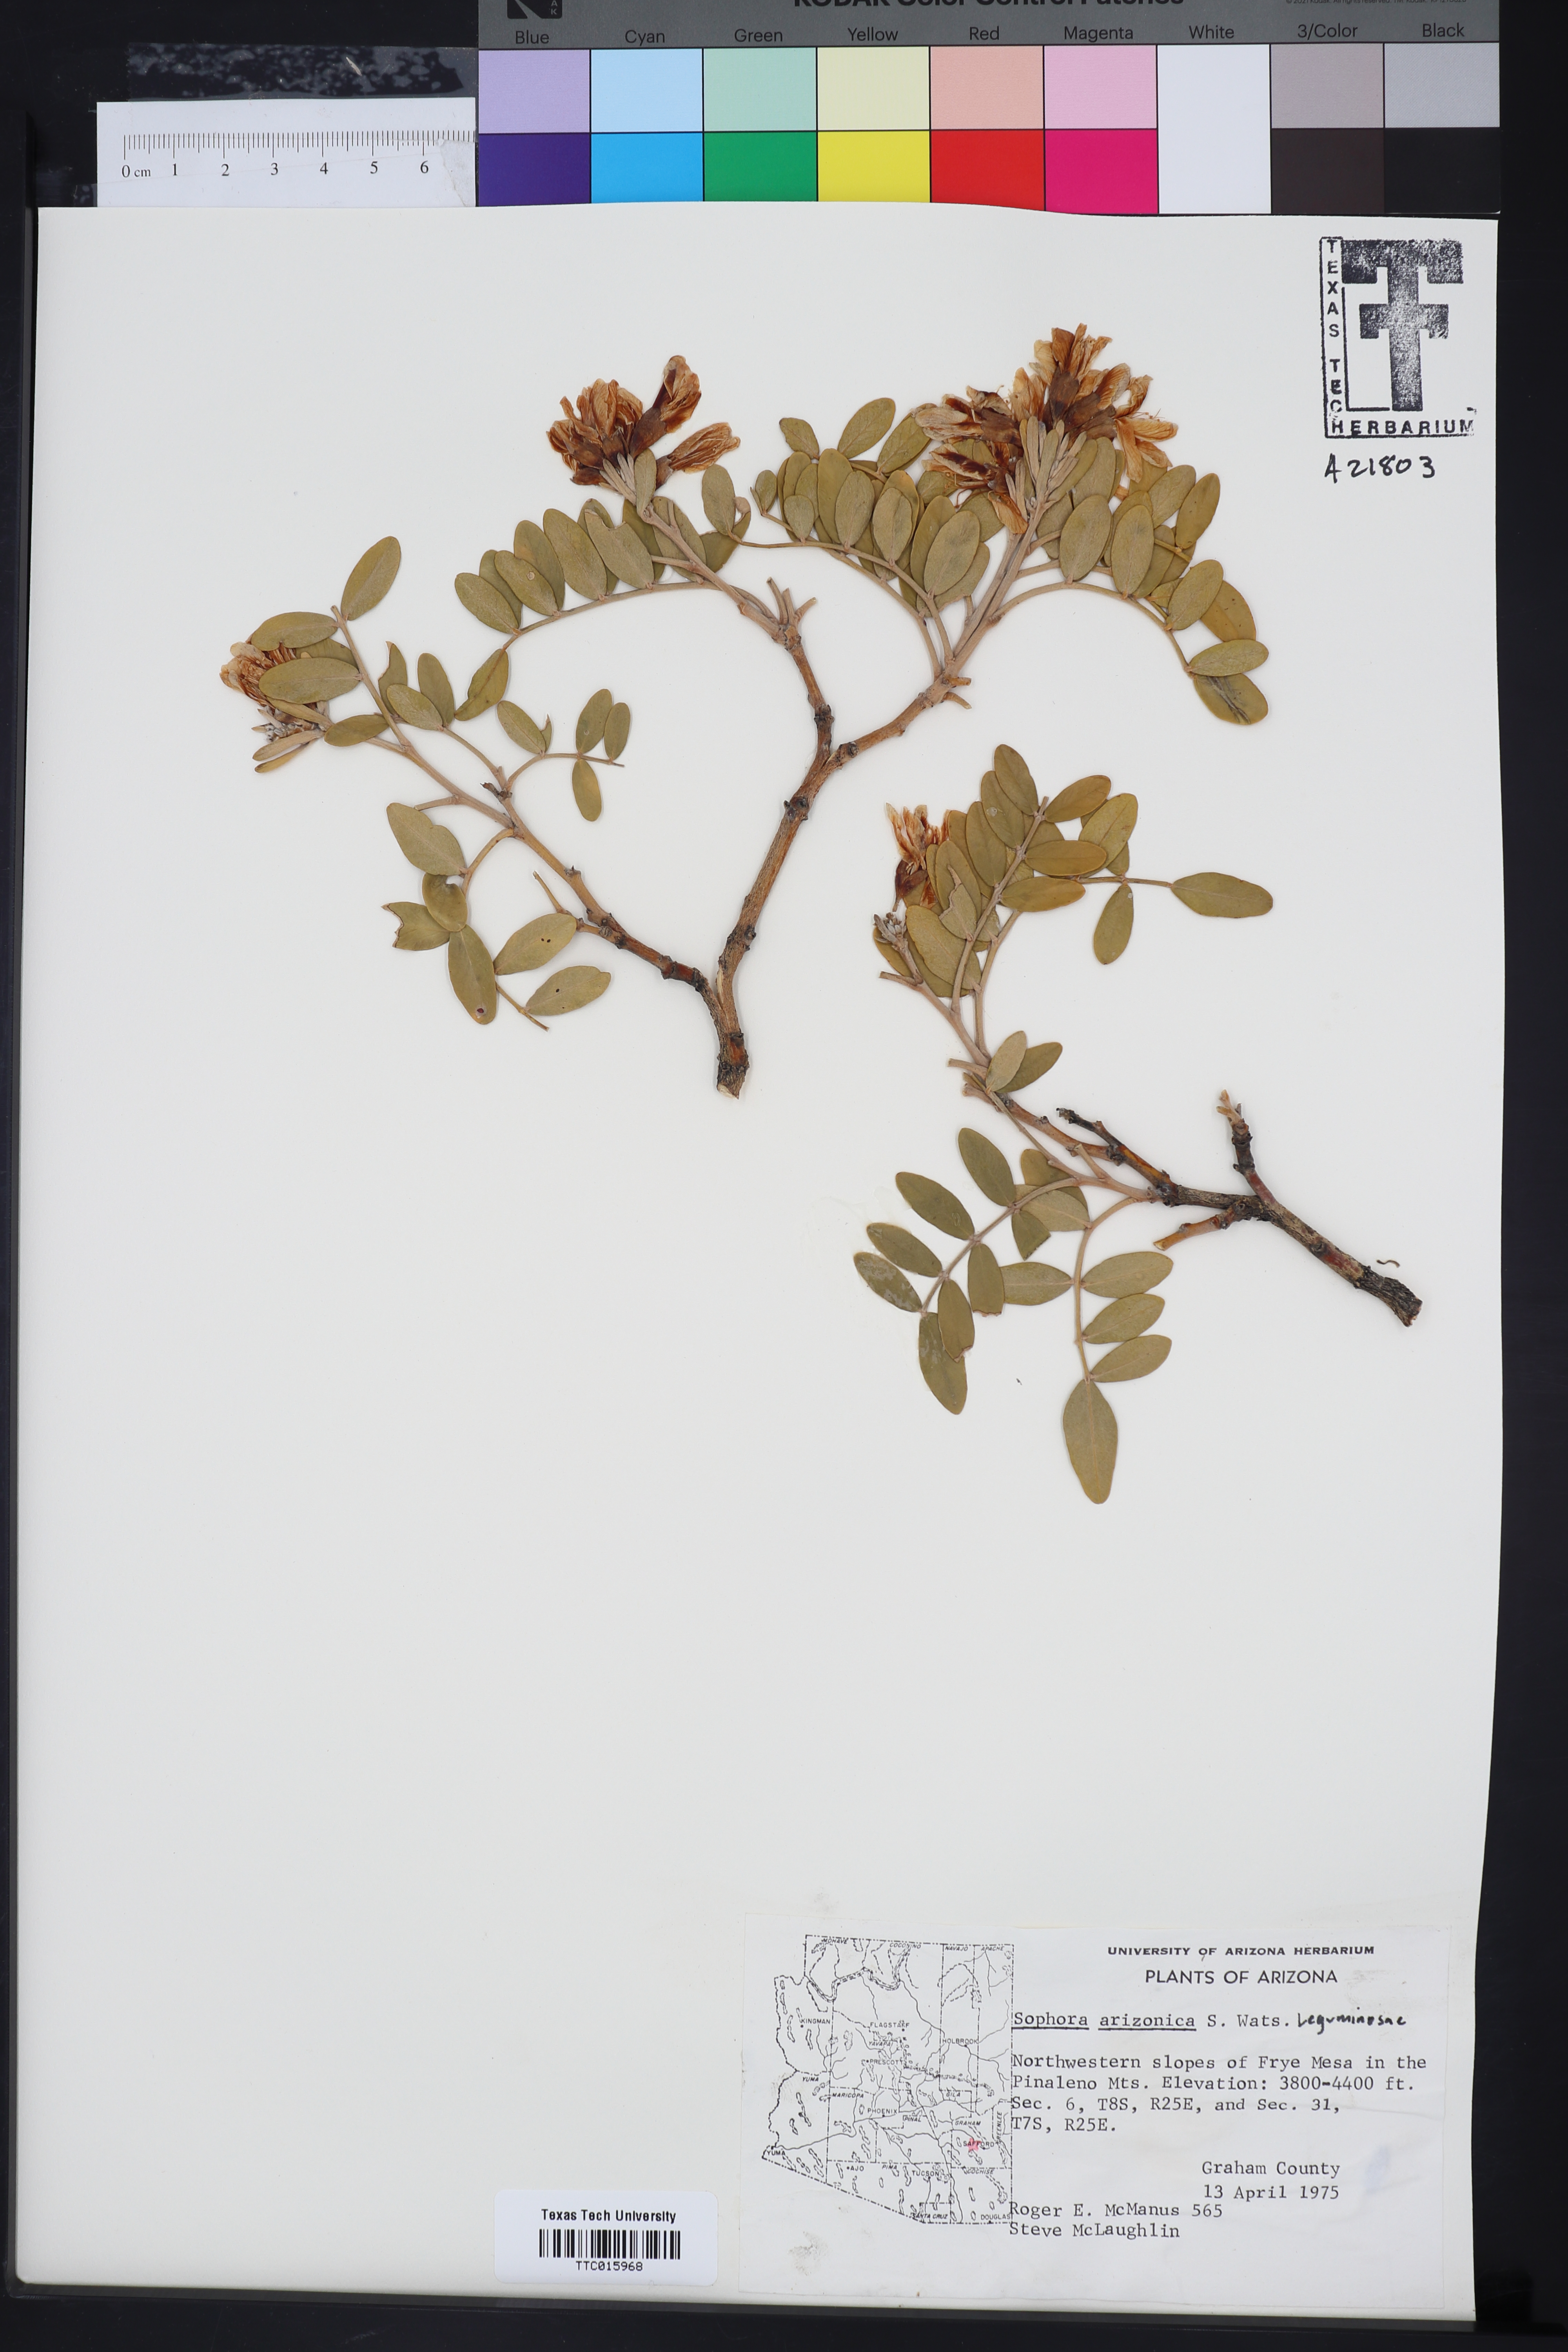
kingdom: Plantae
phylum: Tracheophyta
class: Magnoliopsida
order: Fabales
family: Fabaceae
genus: Dermatophyllum
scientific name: Dermatophyllum arizonicum
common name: Arizona necklace
